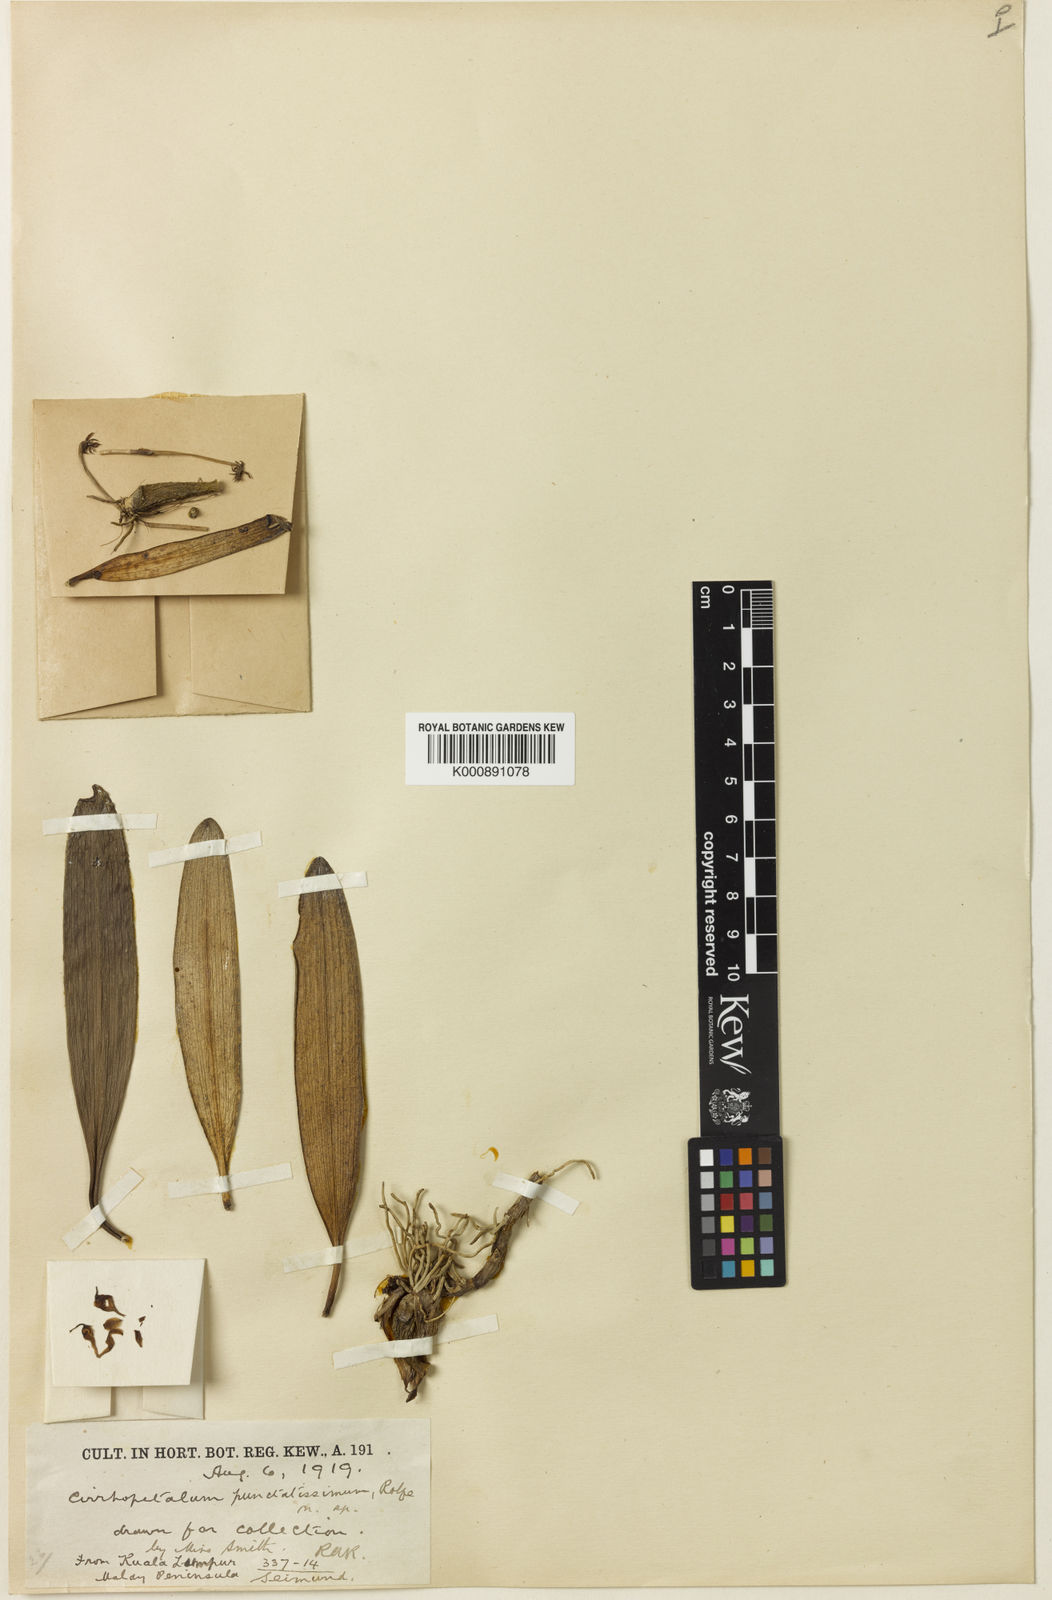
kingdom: Plantae
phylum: Tracheophyta
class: Liliopsida
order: Asparagales
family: Orchidaceae
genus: Bulbophyllum
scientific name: Bulbophyllum taeniophyllum
